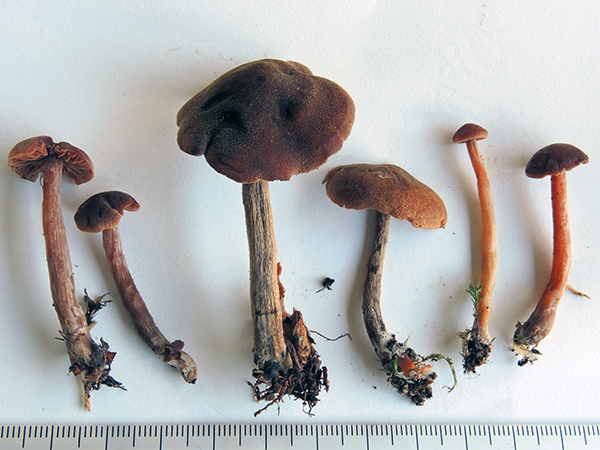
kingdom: Fungi
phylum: Basidiomycota
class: Agaricomycetes
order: Agaricales
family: Hymenogastraceae
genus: Naucoria
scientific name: Naucoria sphagneti
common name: lysrandet knaphat
